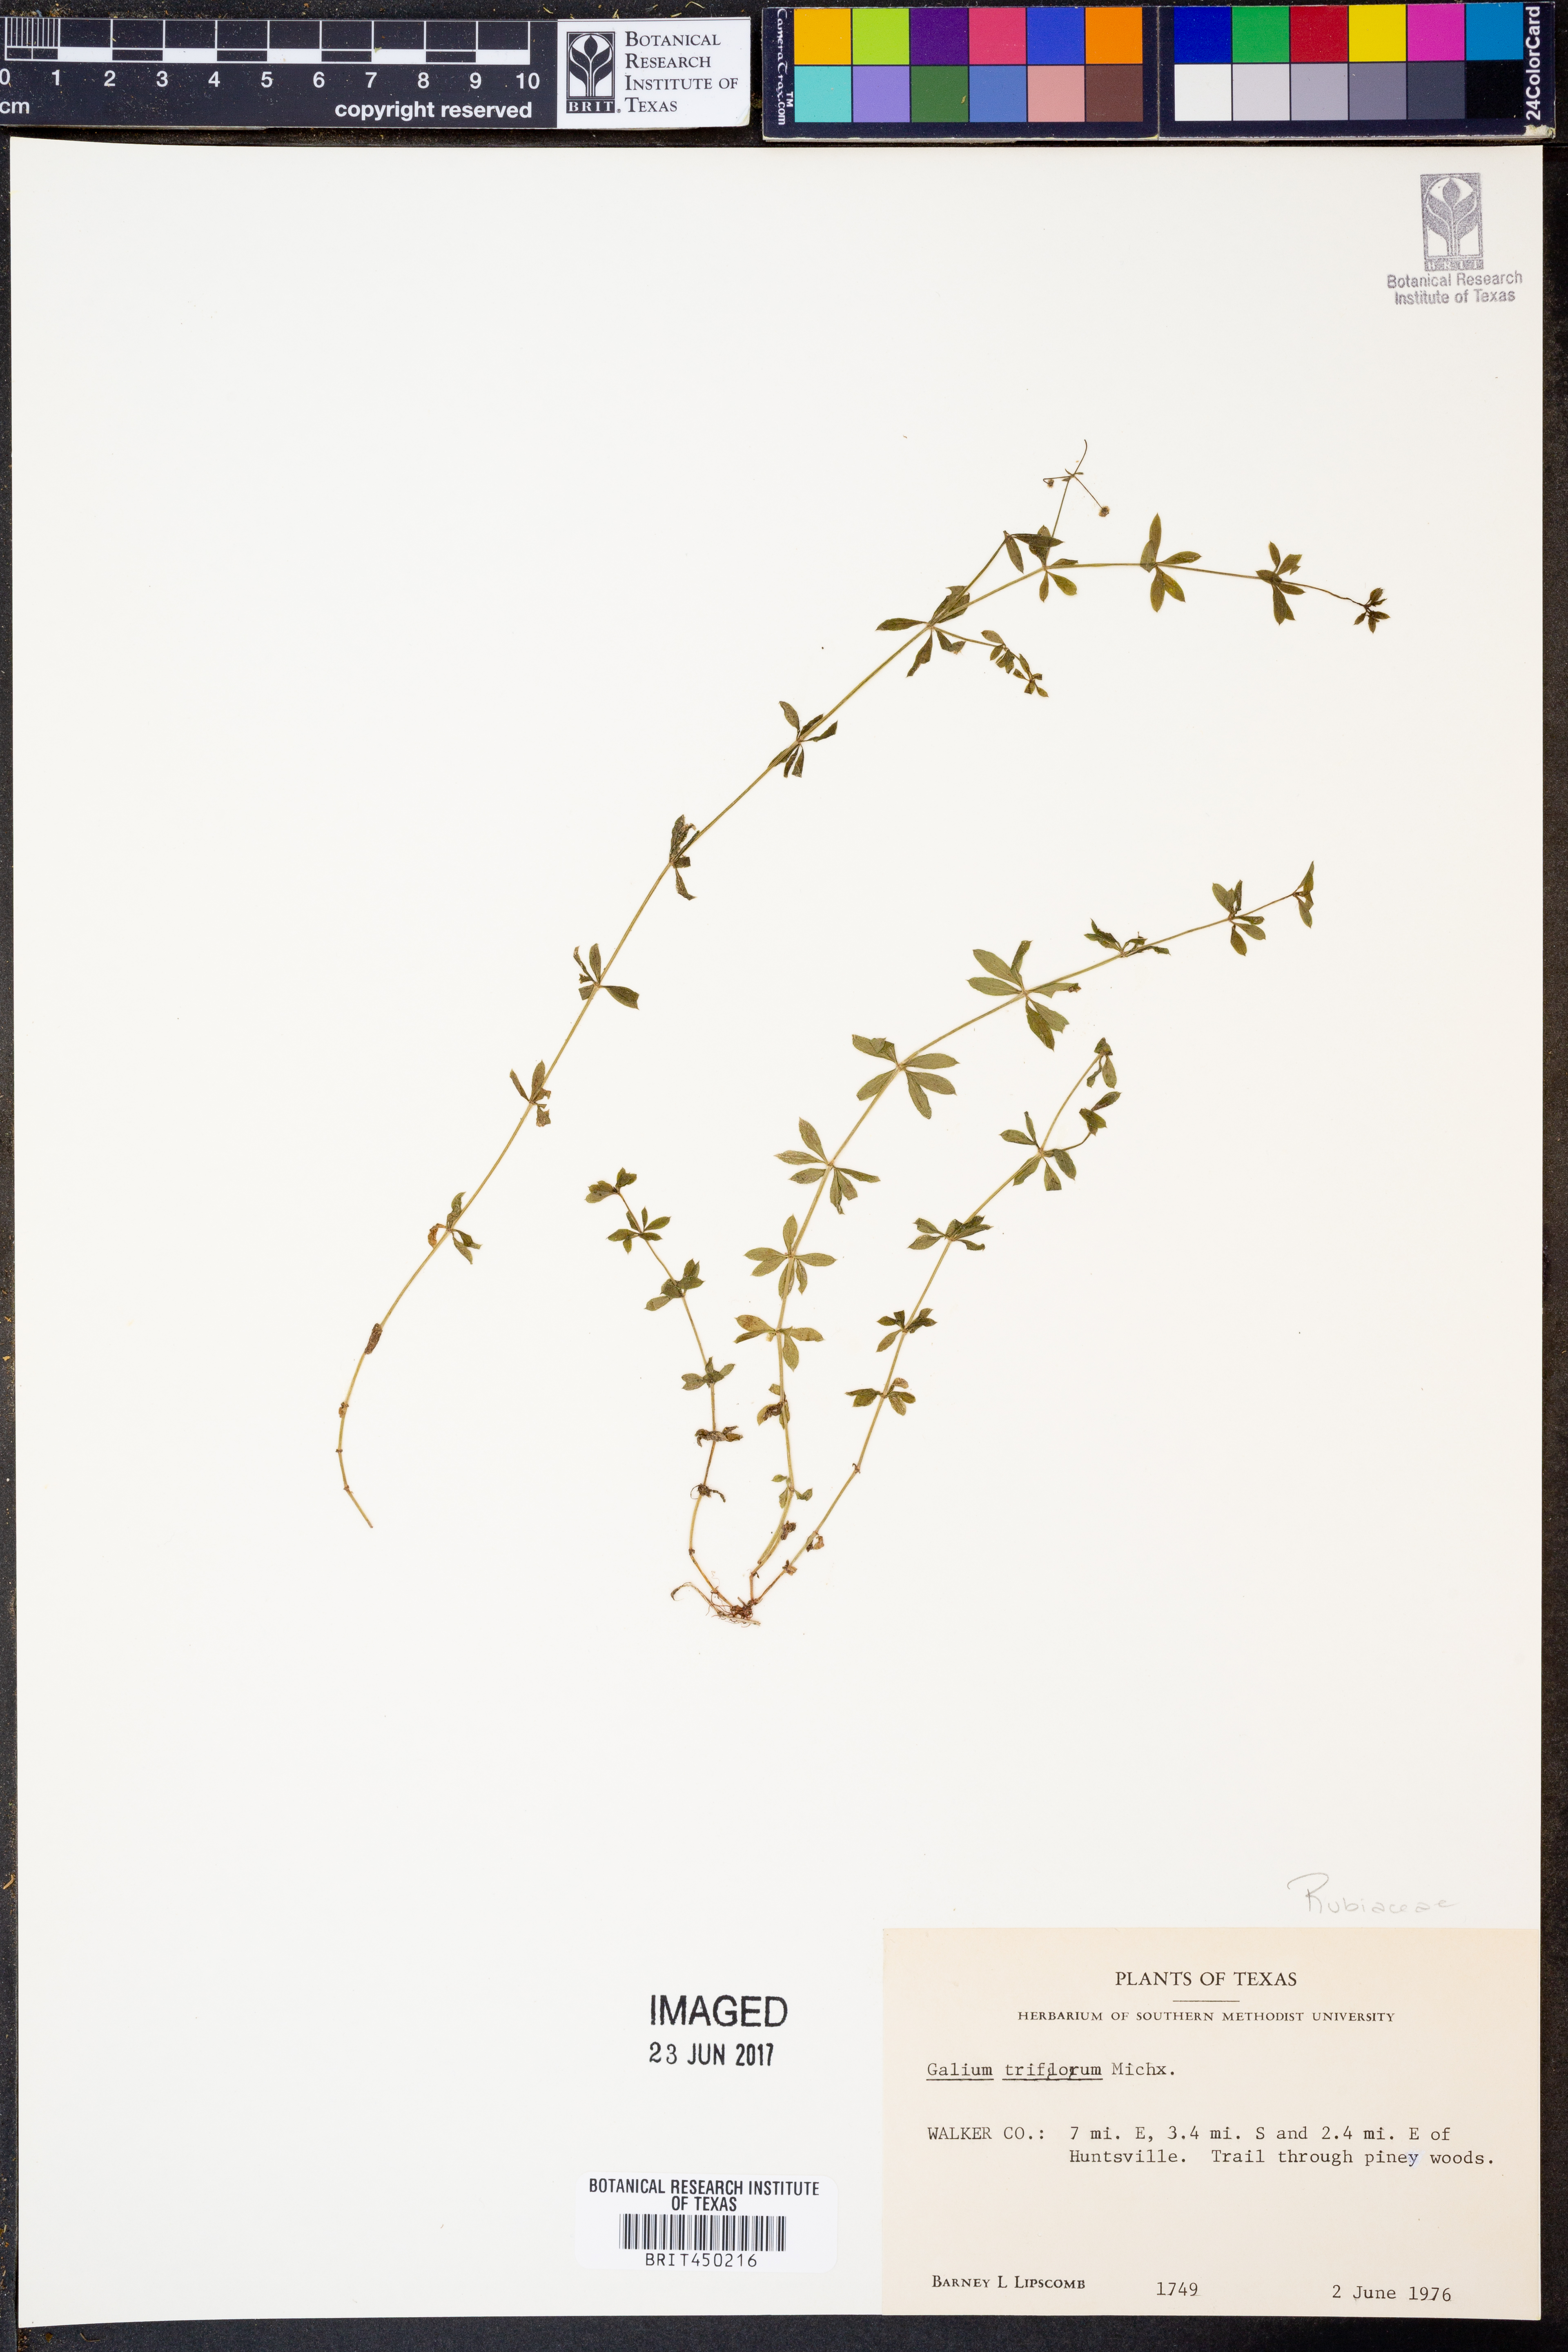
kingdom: Plantae
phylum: Tracheophyta
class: Magnoliopsida
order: Gentianales
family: Rubiaceae
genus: Galium
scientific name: Galium triflorum
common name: Fragrant bedstraw
